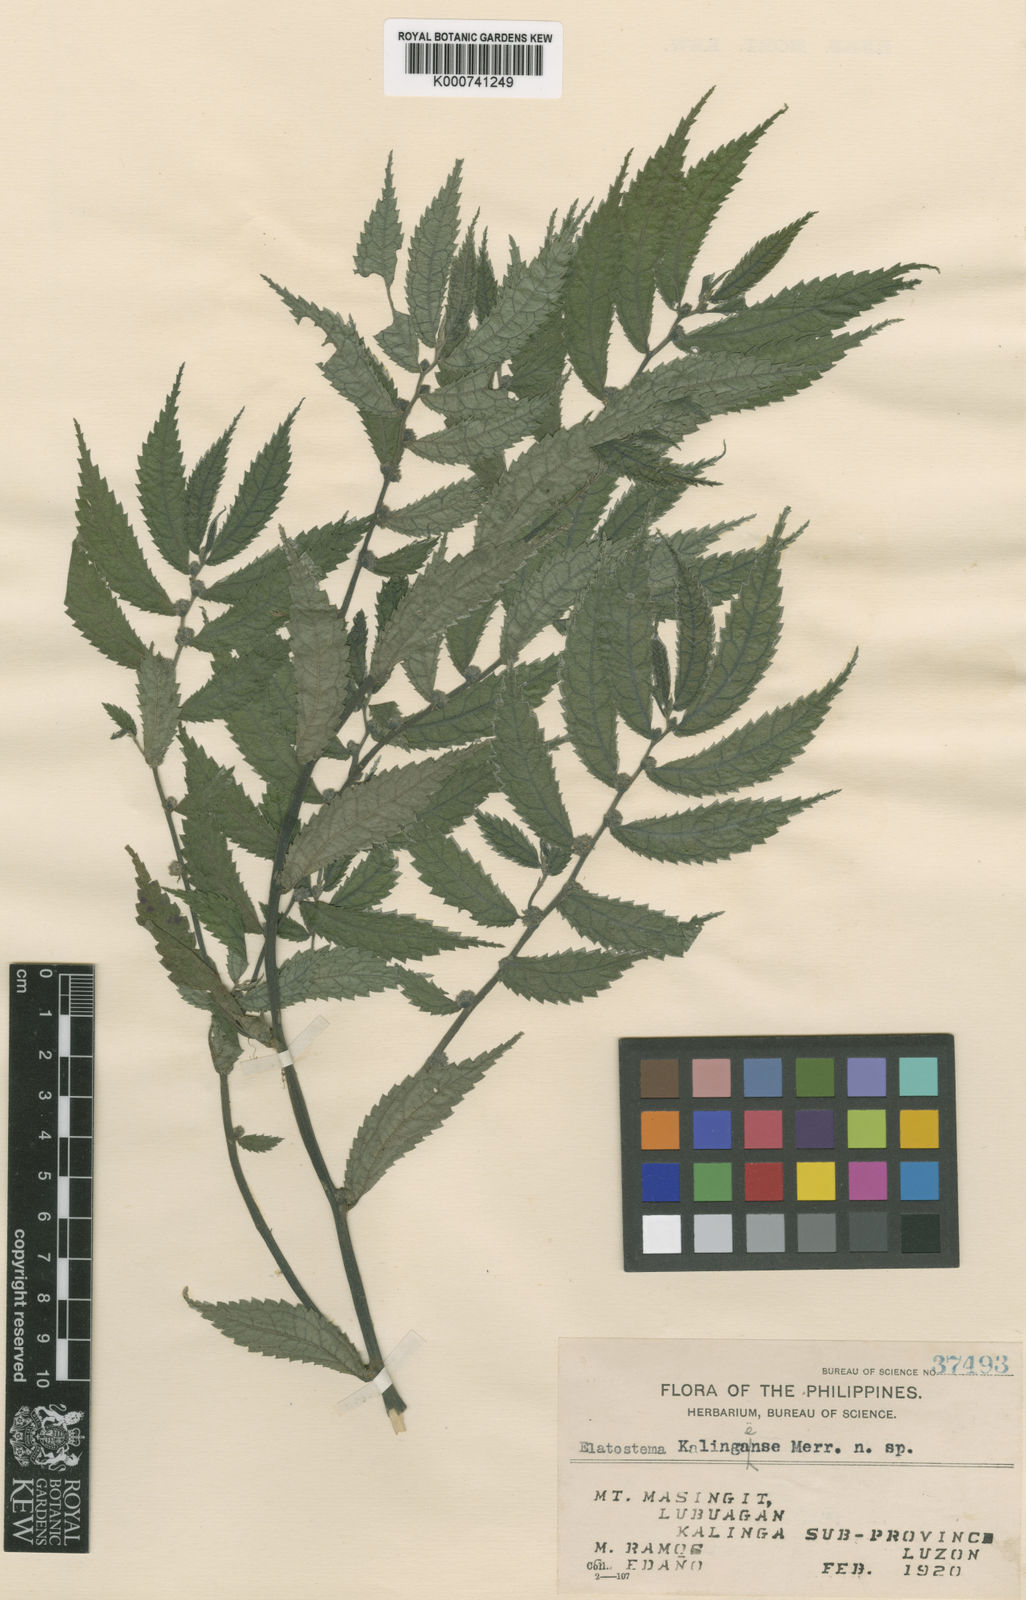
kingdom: Plantae
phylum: Tracheophyta
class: Magnoliopsida
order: Rosales
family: Urticaceae
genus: Elatostema
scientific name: Elatostema kalingaense
